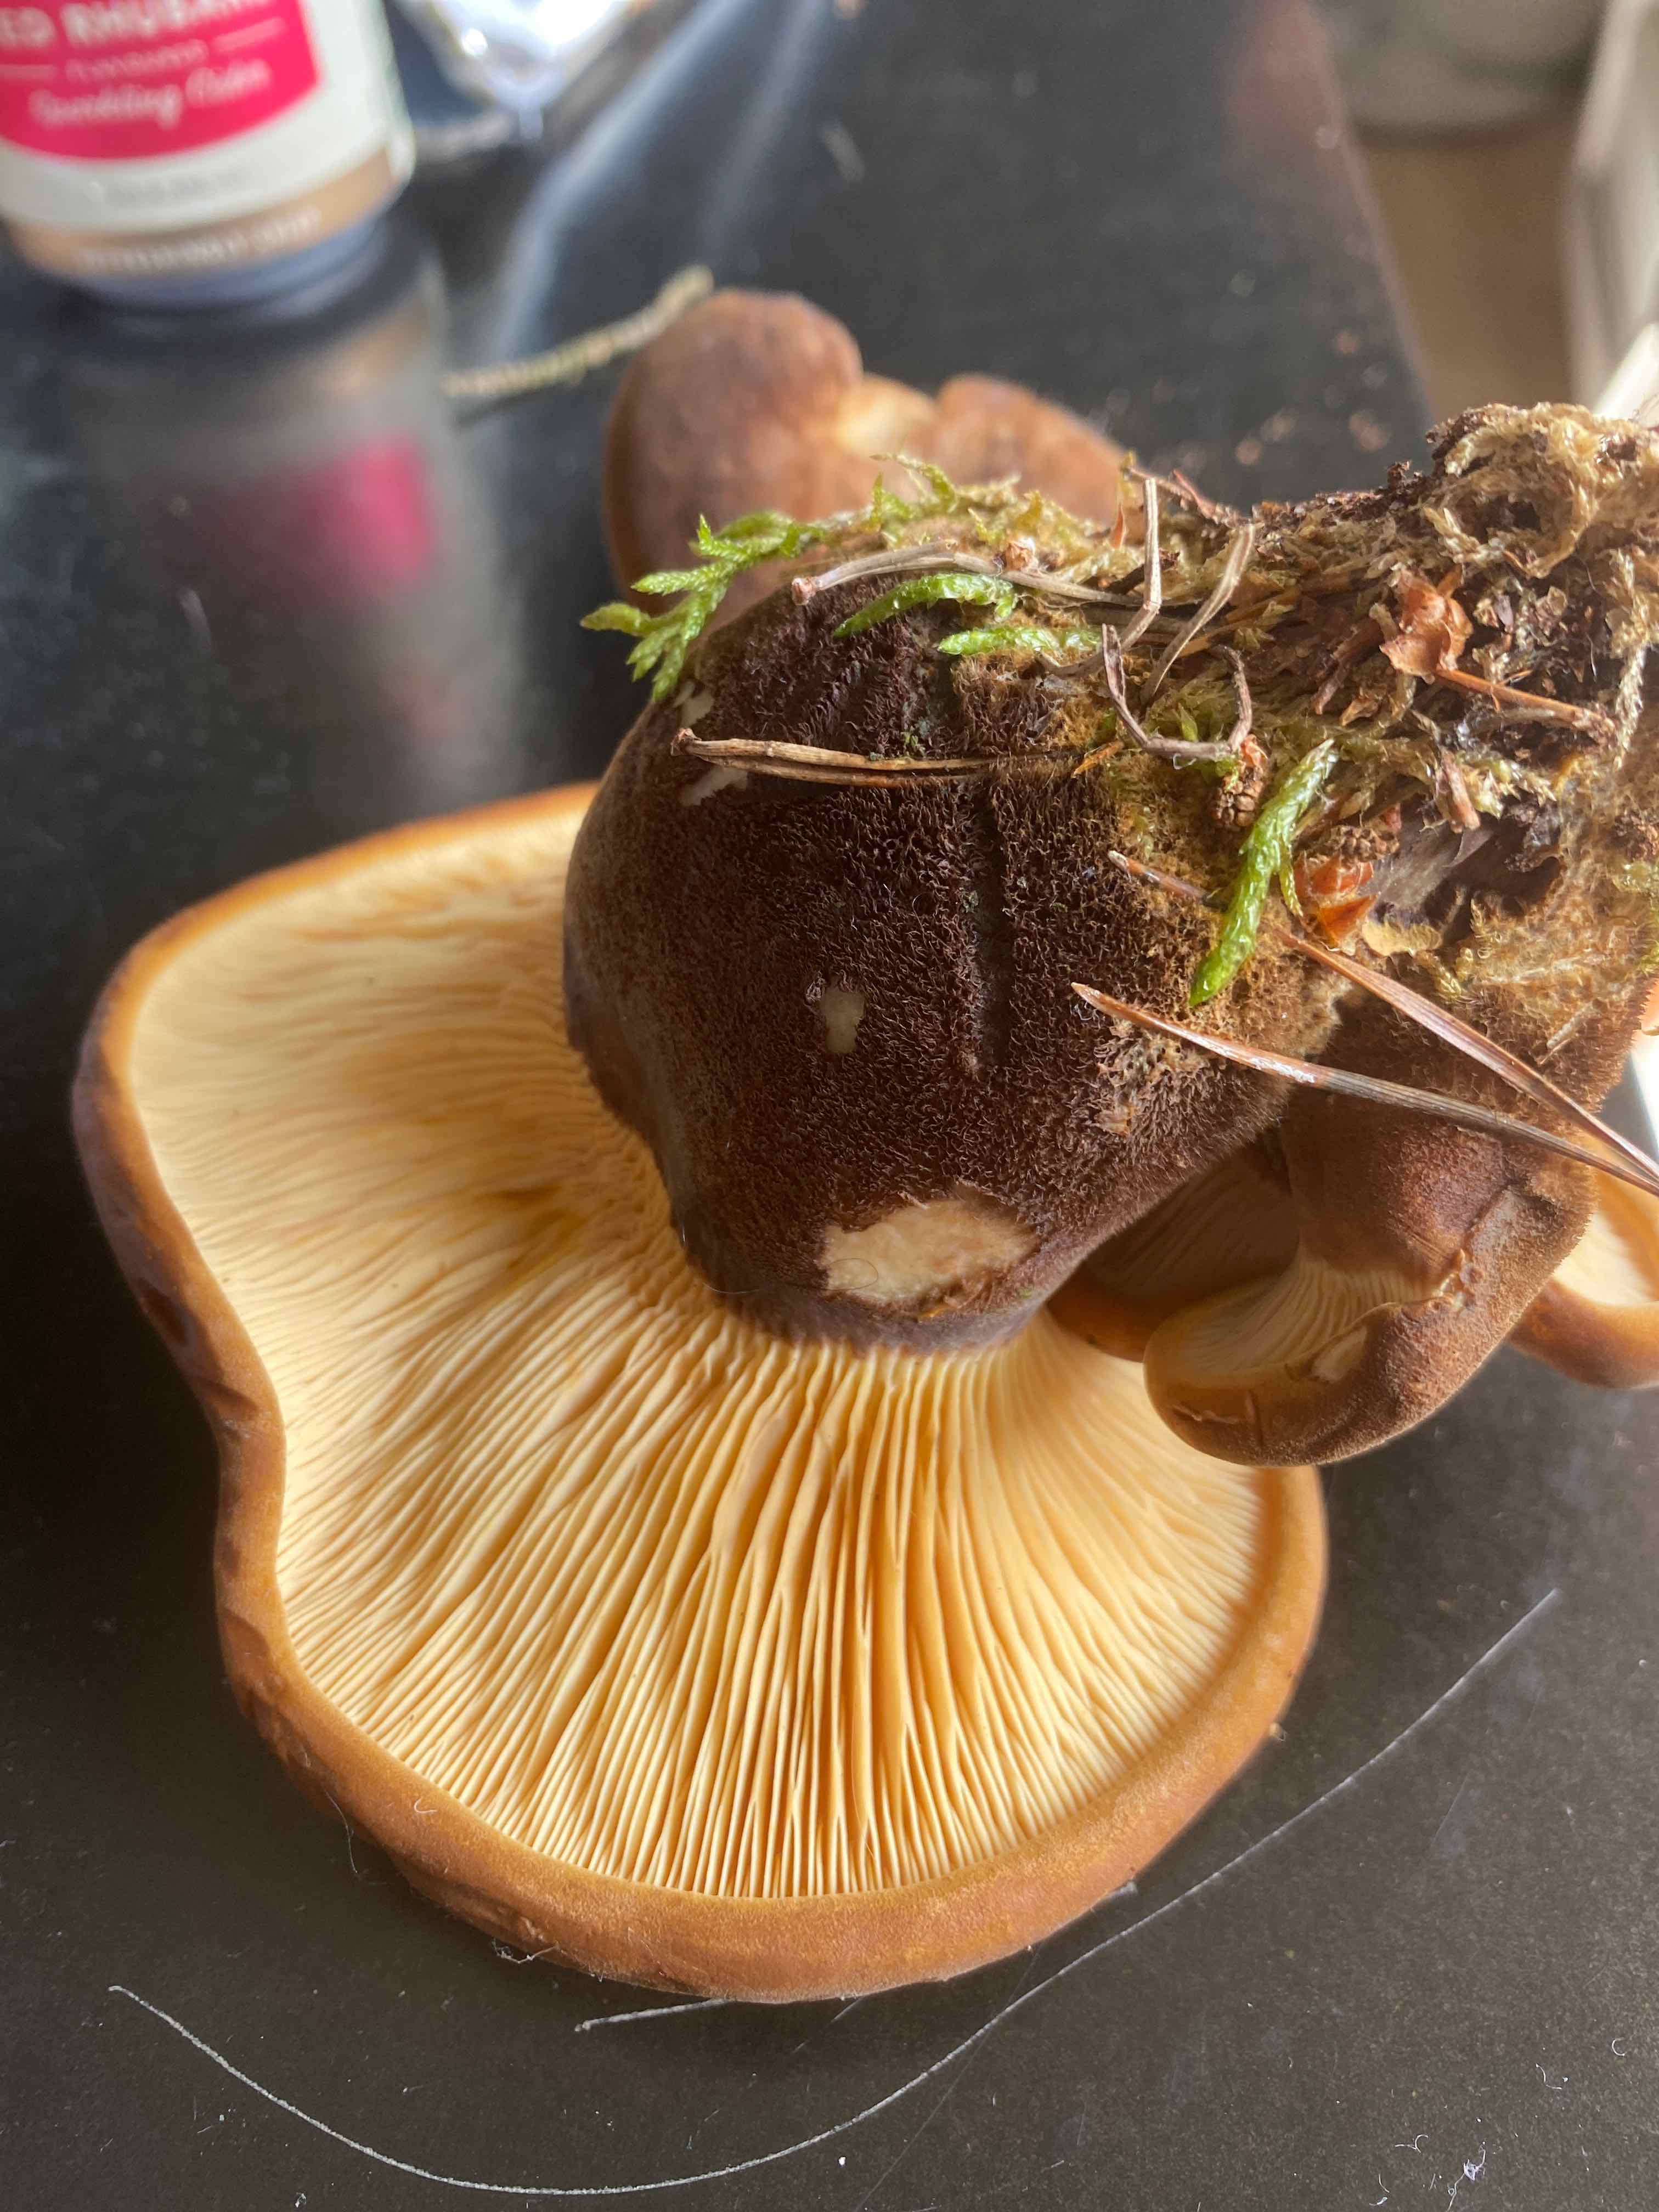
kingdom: Fungi
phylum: Basidiomycota
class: Agaricomycetes
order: Boletales
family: Tapinellaceae
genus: Tapinella
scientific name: Tapinella atrotomentosa
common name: sortfiltet viftesvamp
